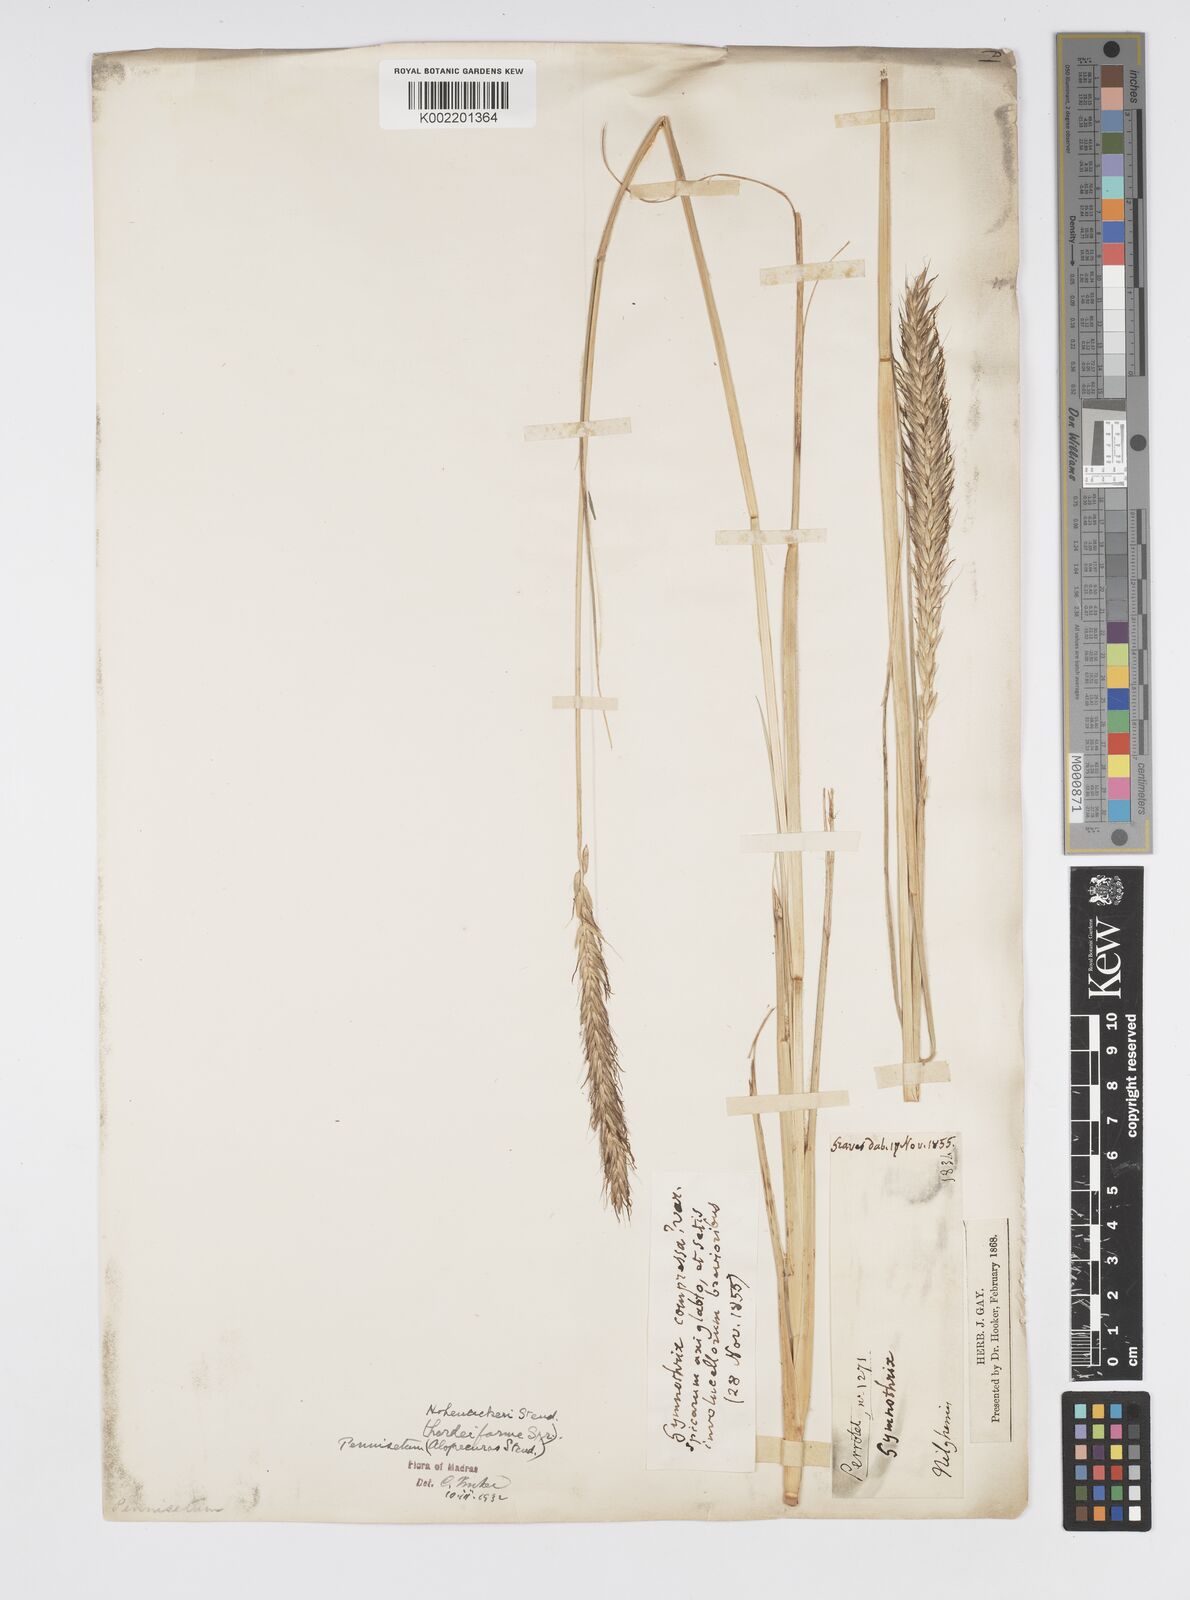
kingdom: Plantae
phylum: Tracheophyta
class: Liliopsida
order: Poales
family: Poaceae
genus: Cenchrus
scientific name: Cenchrus hohenackeri
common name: Moya grass
